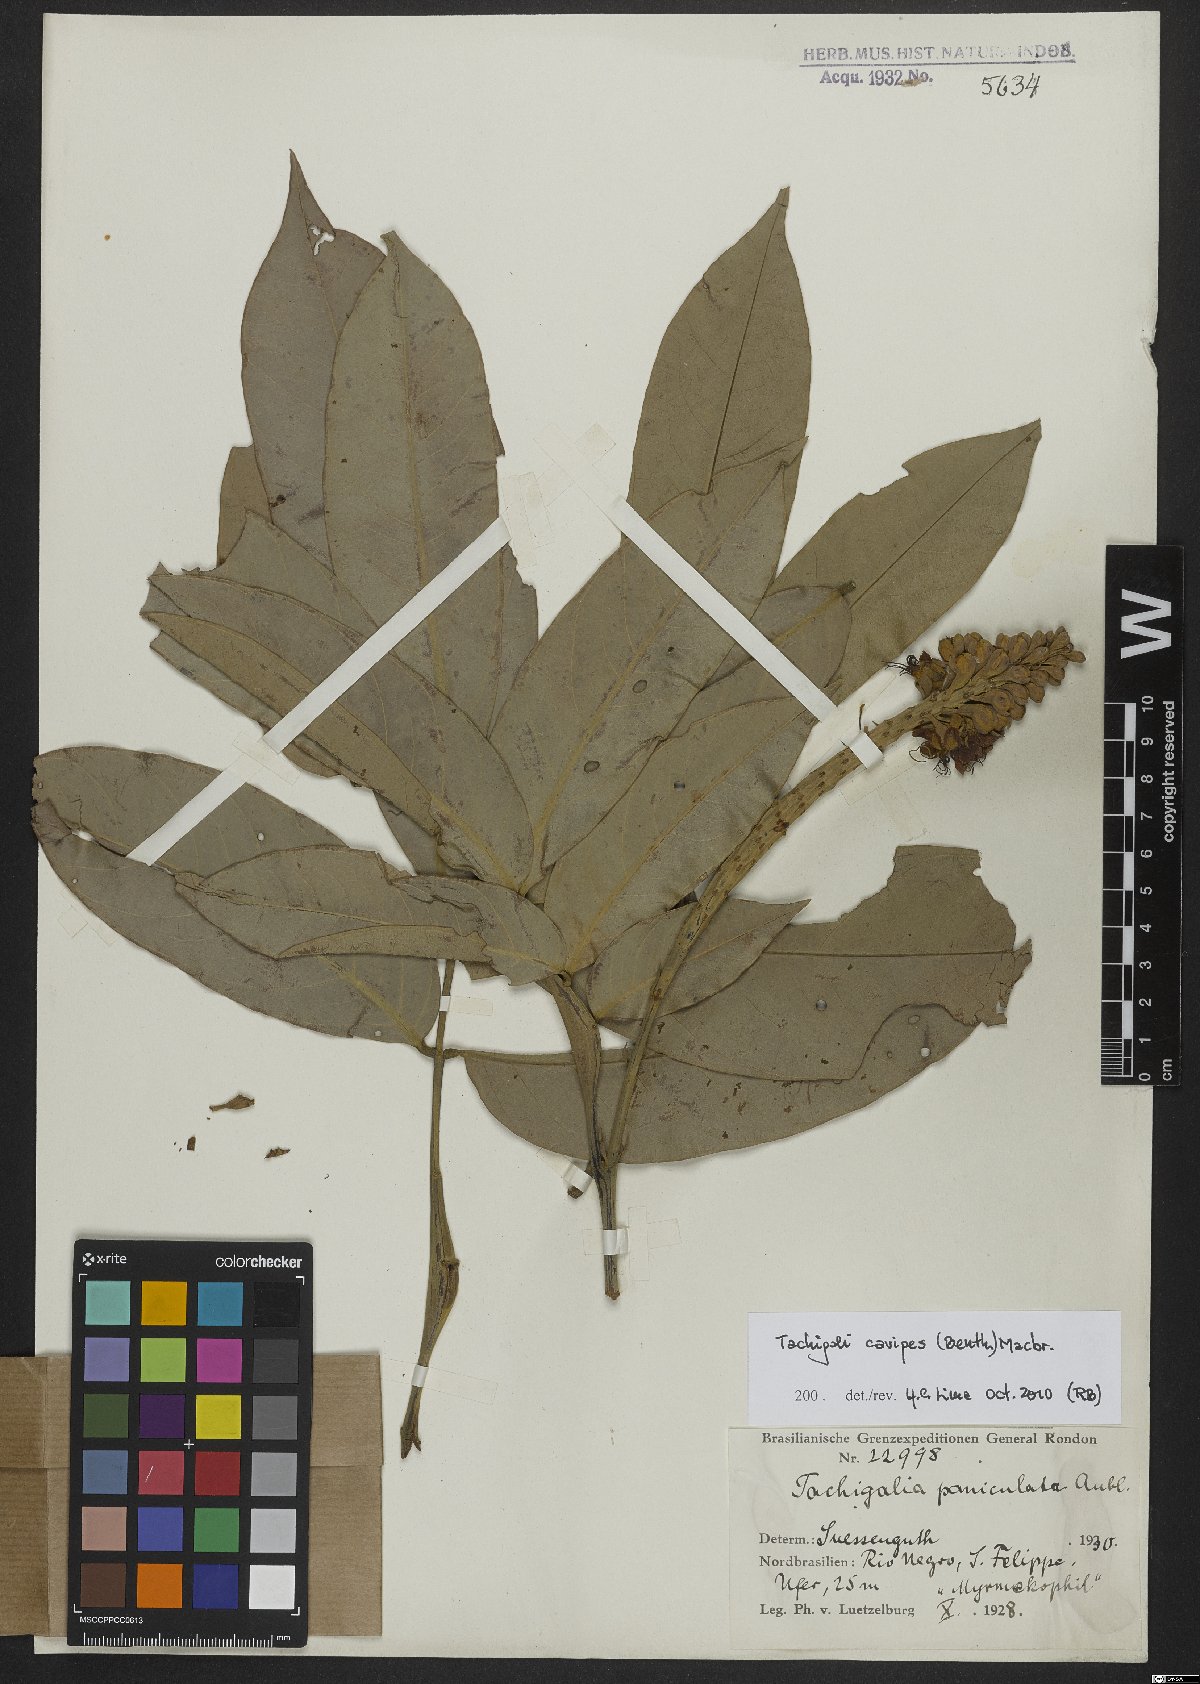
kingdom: Plantae
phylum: Tracheophyta
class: Magnoliopsida
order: Fabales
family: Fabaceae
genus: Tachigali
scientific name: Tachigali cavipes
